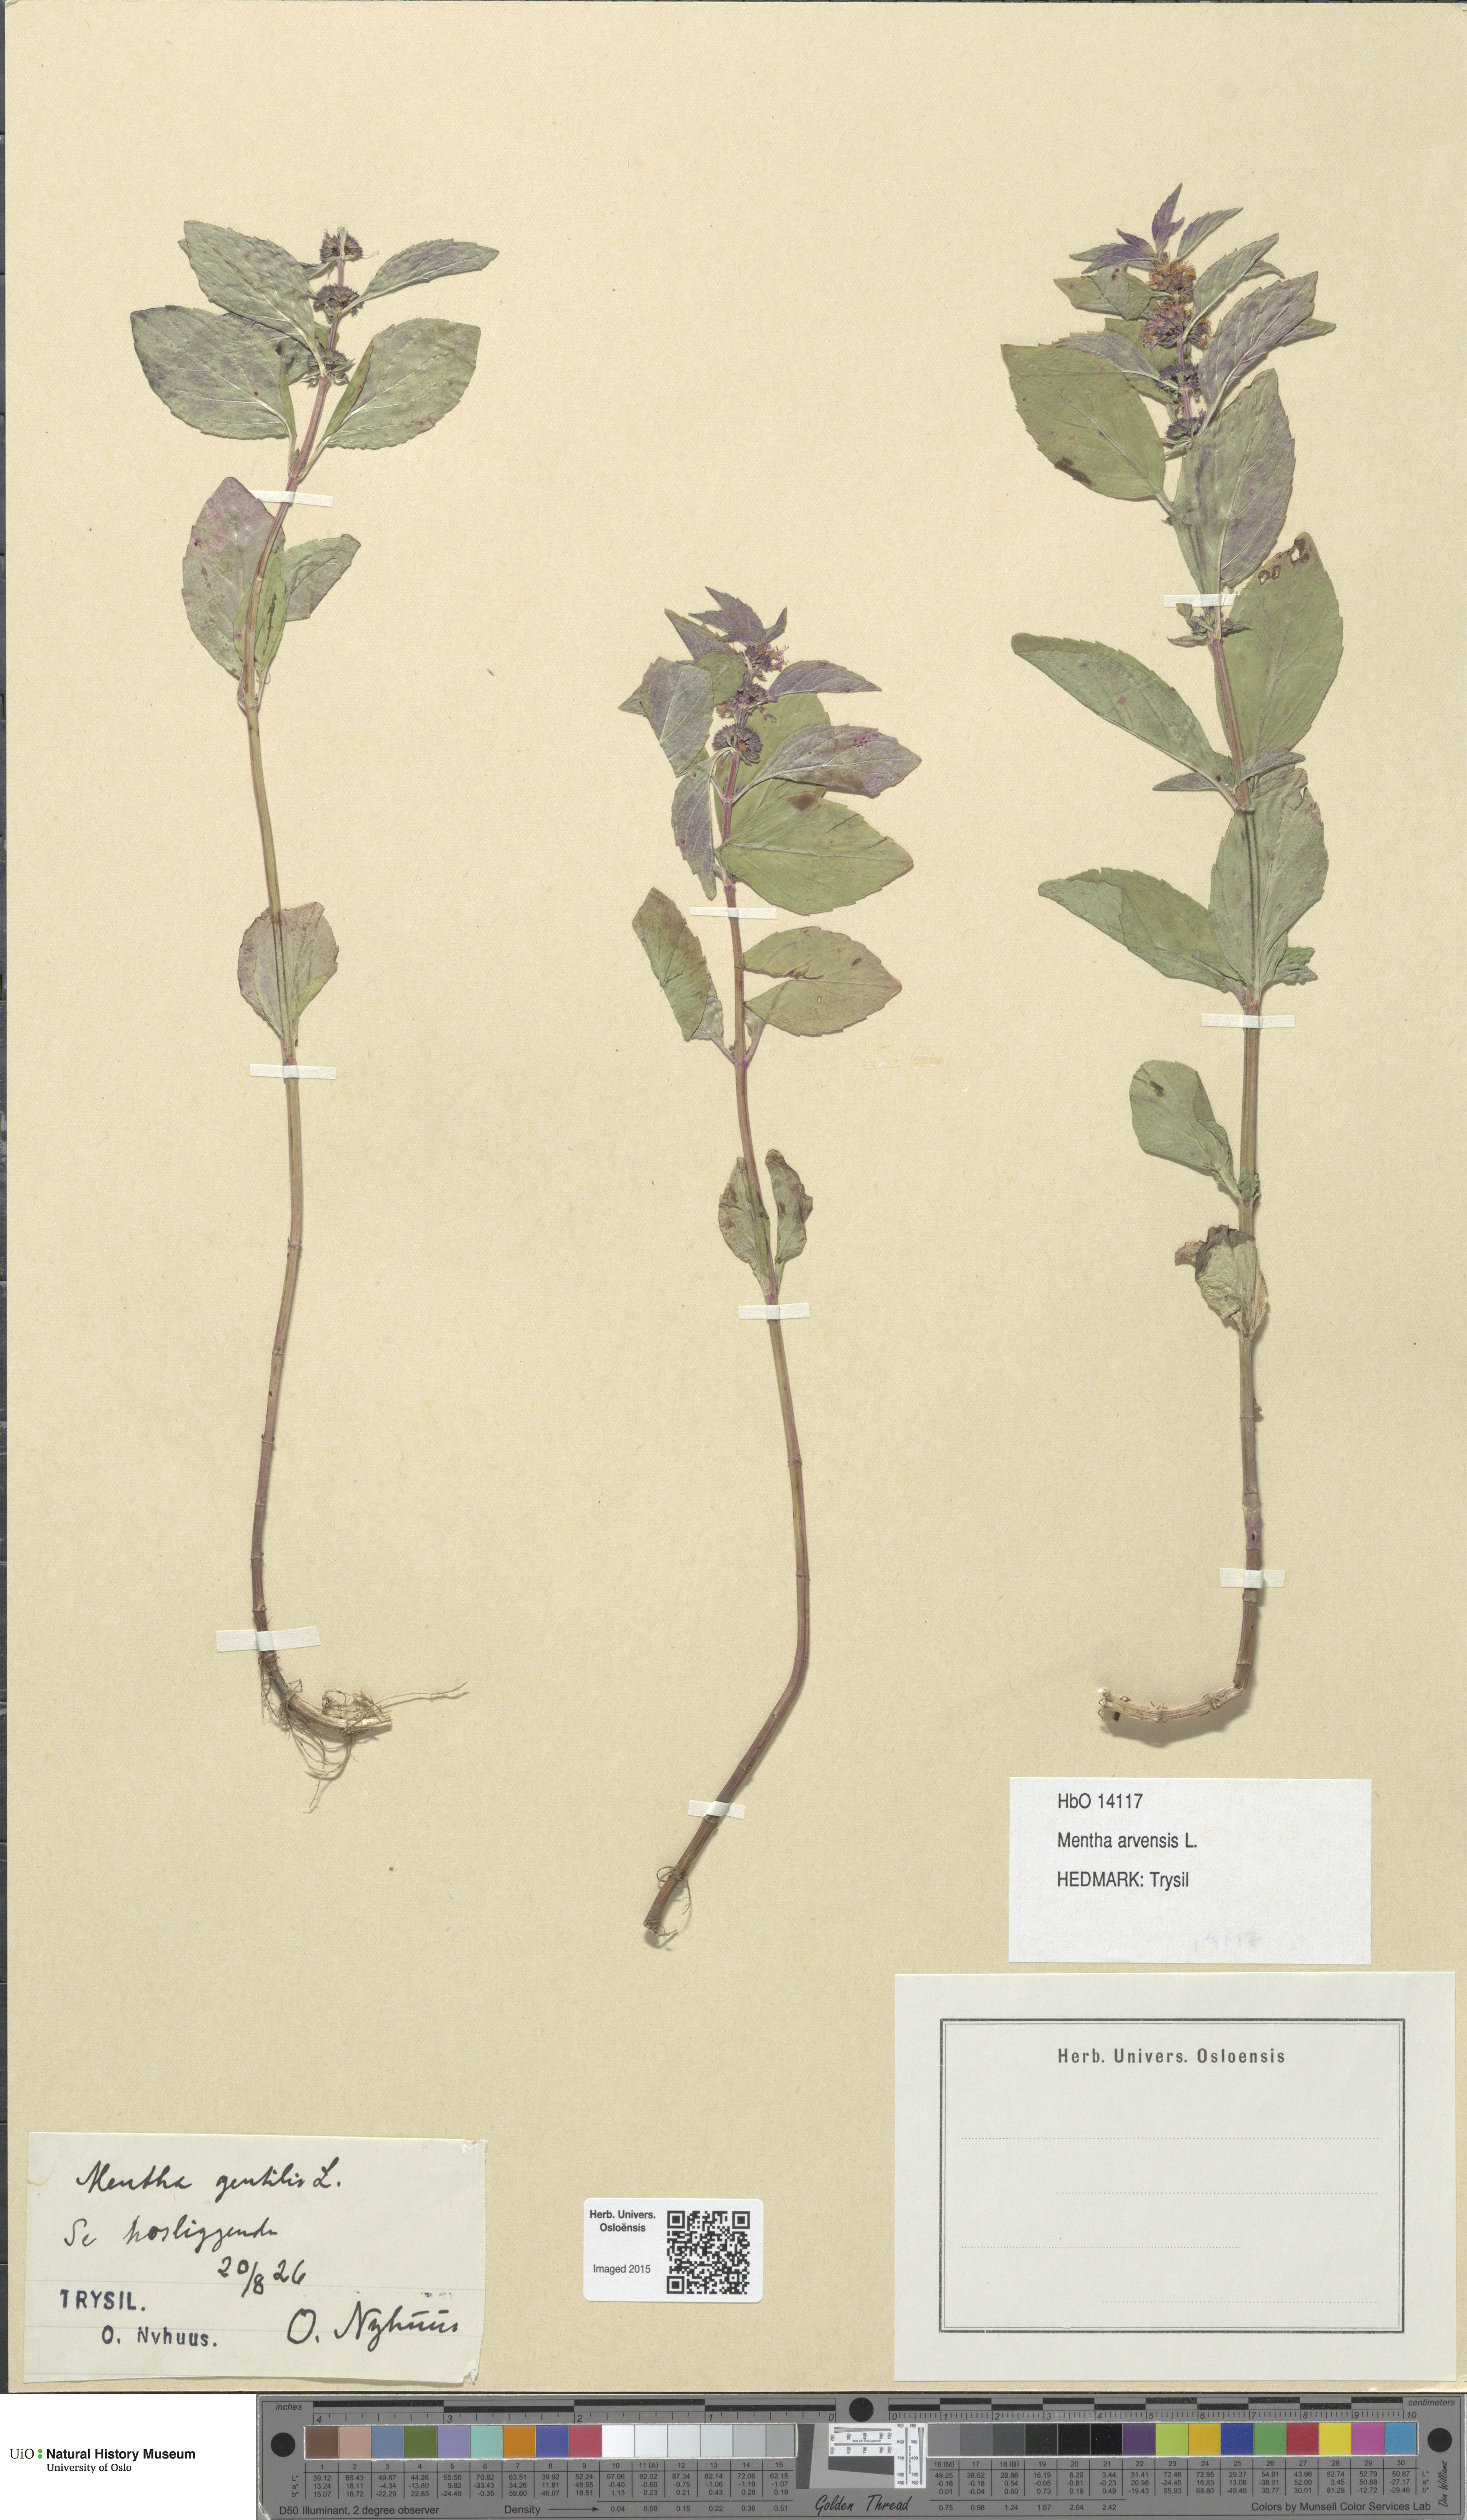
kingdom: Plantae
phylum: Tracheophyta
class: Magnoliopsida
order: Lamiales
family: Lamiaceae
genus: Mentha
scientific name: Mentha arvensis
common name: Corn mint
